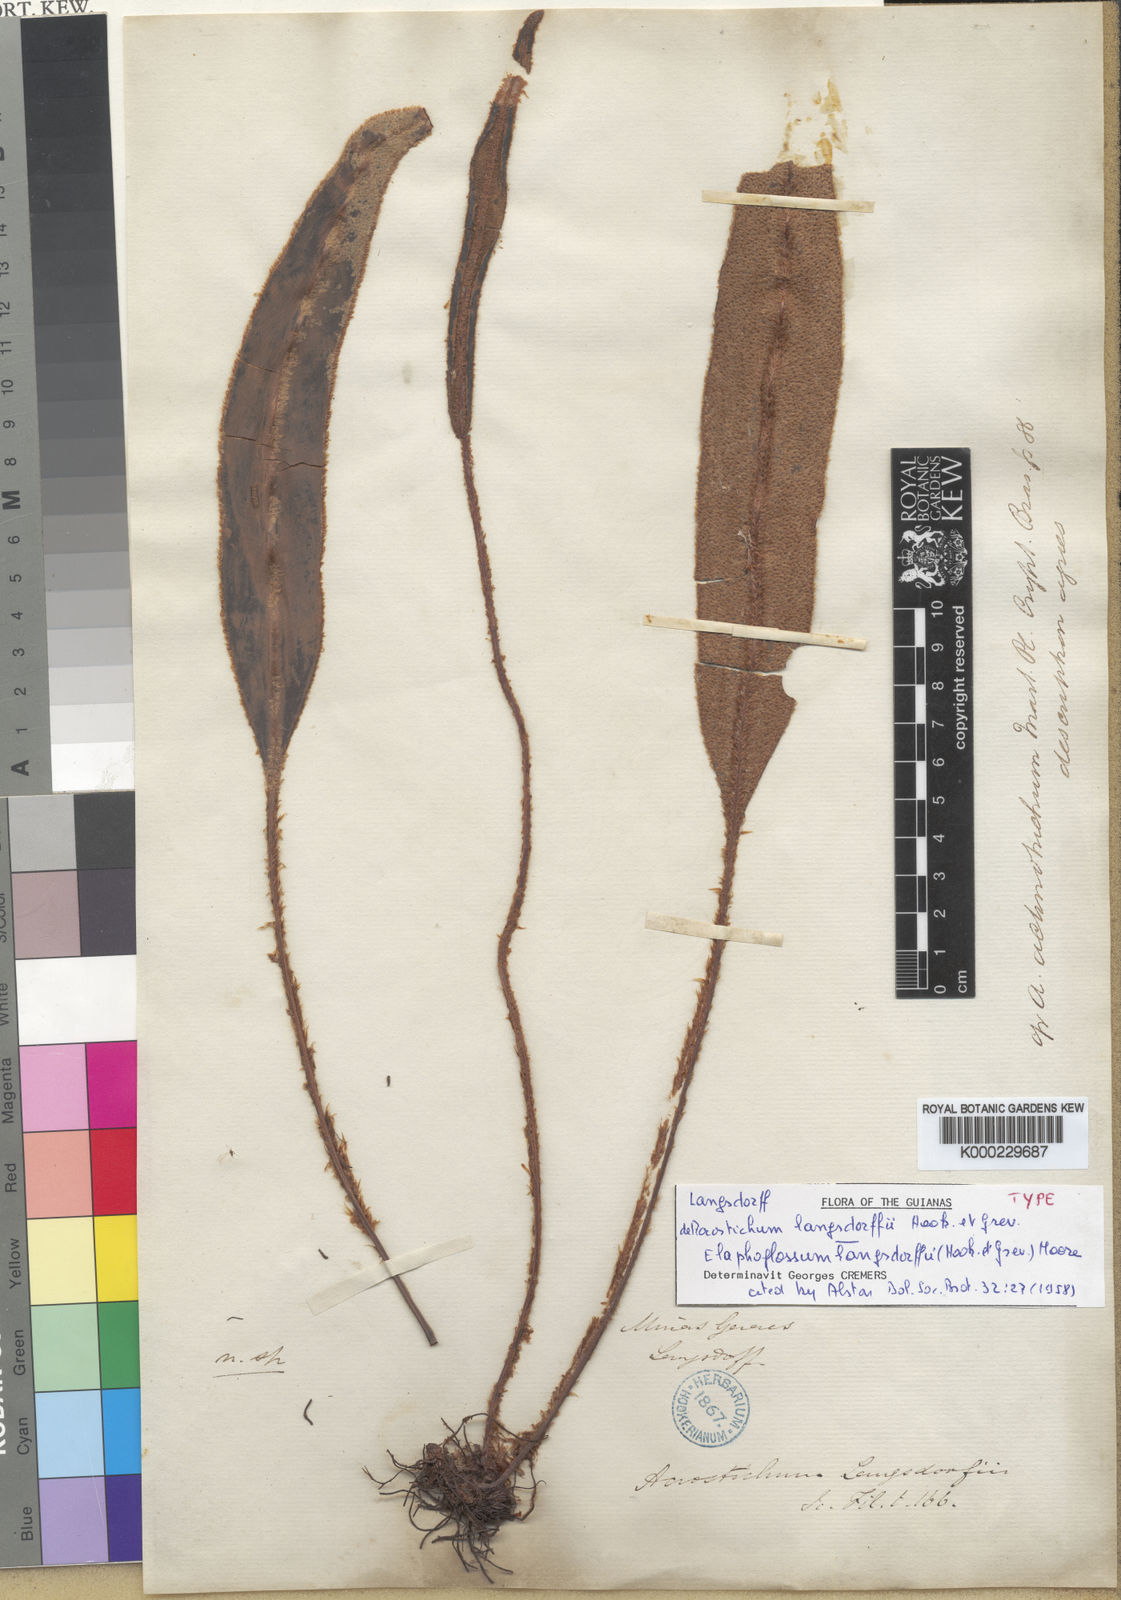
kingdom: Plantae
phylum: Tracheophyta
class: Polypodiopsida
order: Polypodiales
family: Dryopteridaceae
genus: Elaphoglossum
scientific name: Elaphoglossum langsdorffii
